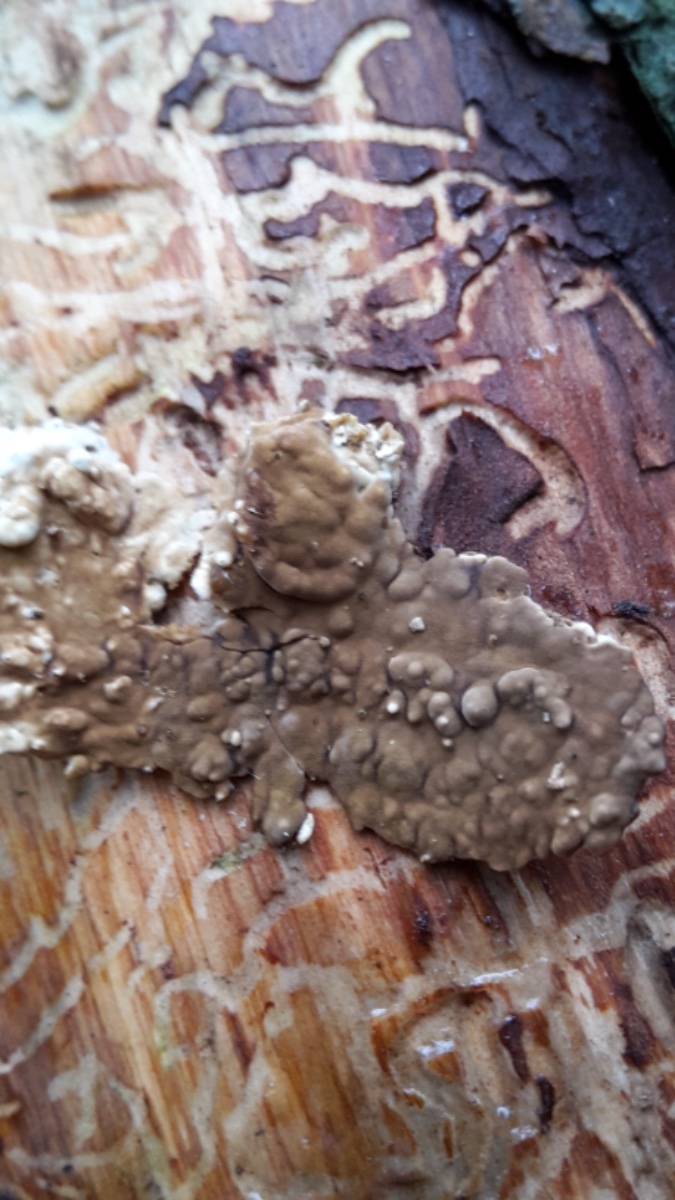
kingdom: Fungi
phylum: Basidiomycota
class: Agaricomycetes
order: Boletales
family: Coniophoraceae
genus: Coniophora
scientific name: Coniophora
